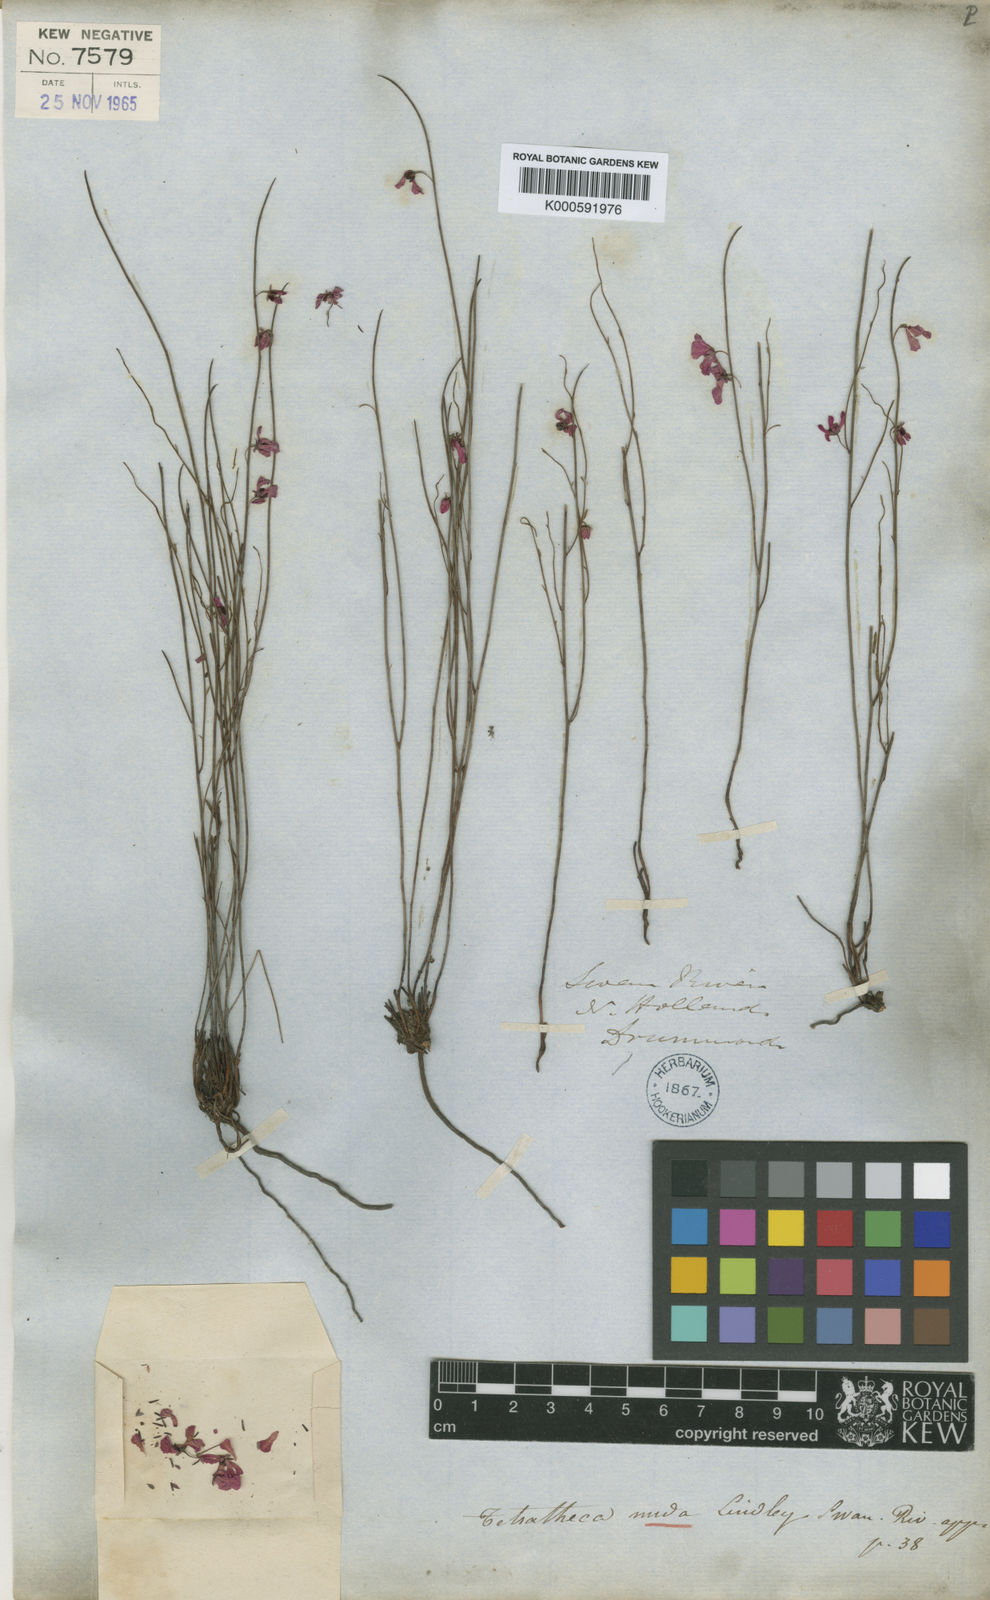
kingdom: Plantae
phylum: Tracheophyta
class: Magnoliopsida
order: Oxalidales
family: Elaeocarpaceae
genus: Tetratheca
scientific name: Tetratheca nuda
